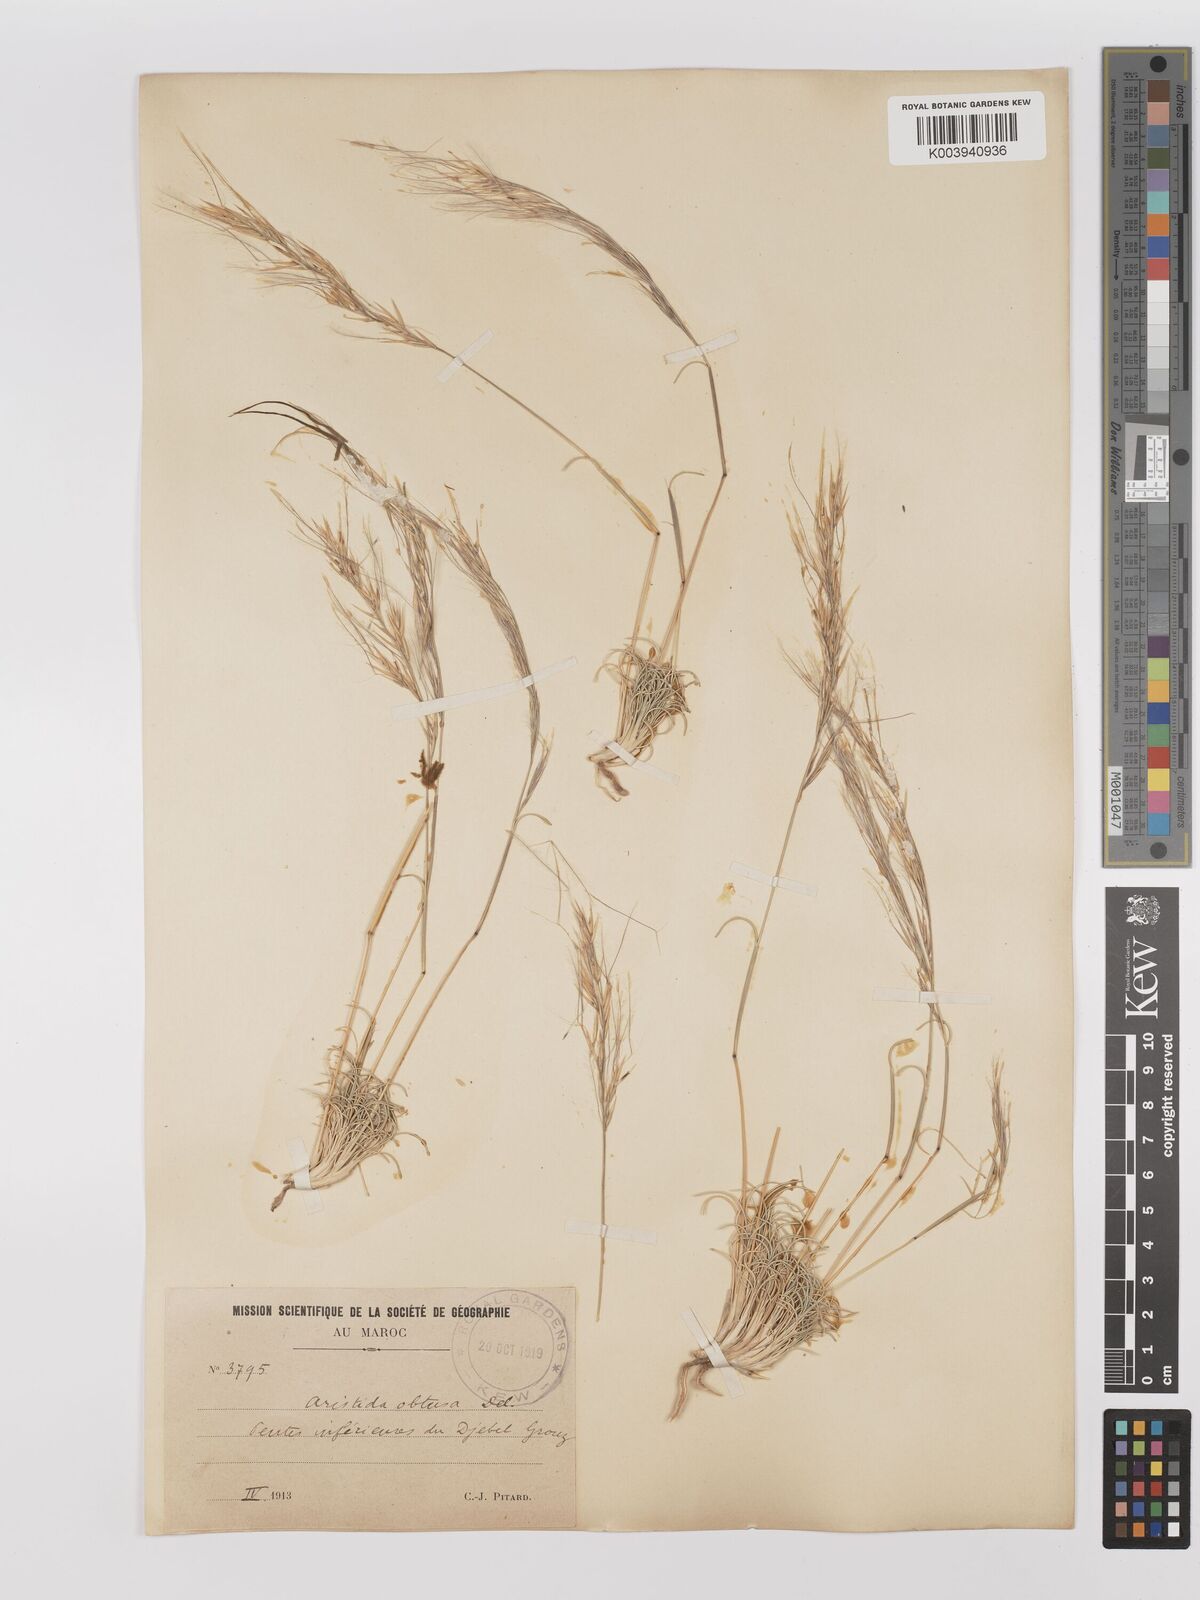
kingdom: Plantae
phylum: Tracheophyta
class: Liliopsida
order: Poales
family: Poaceae
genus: Stipagrostis
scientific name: Stipagrostis obtusa
